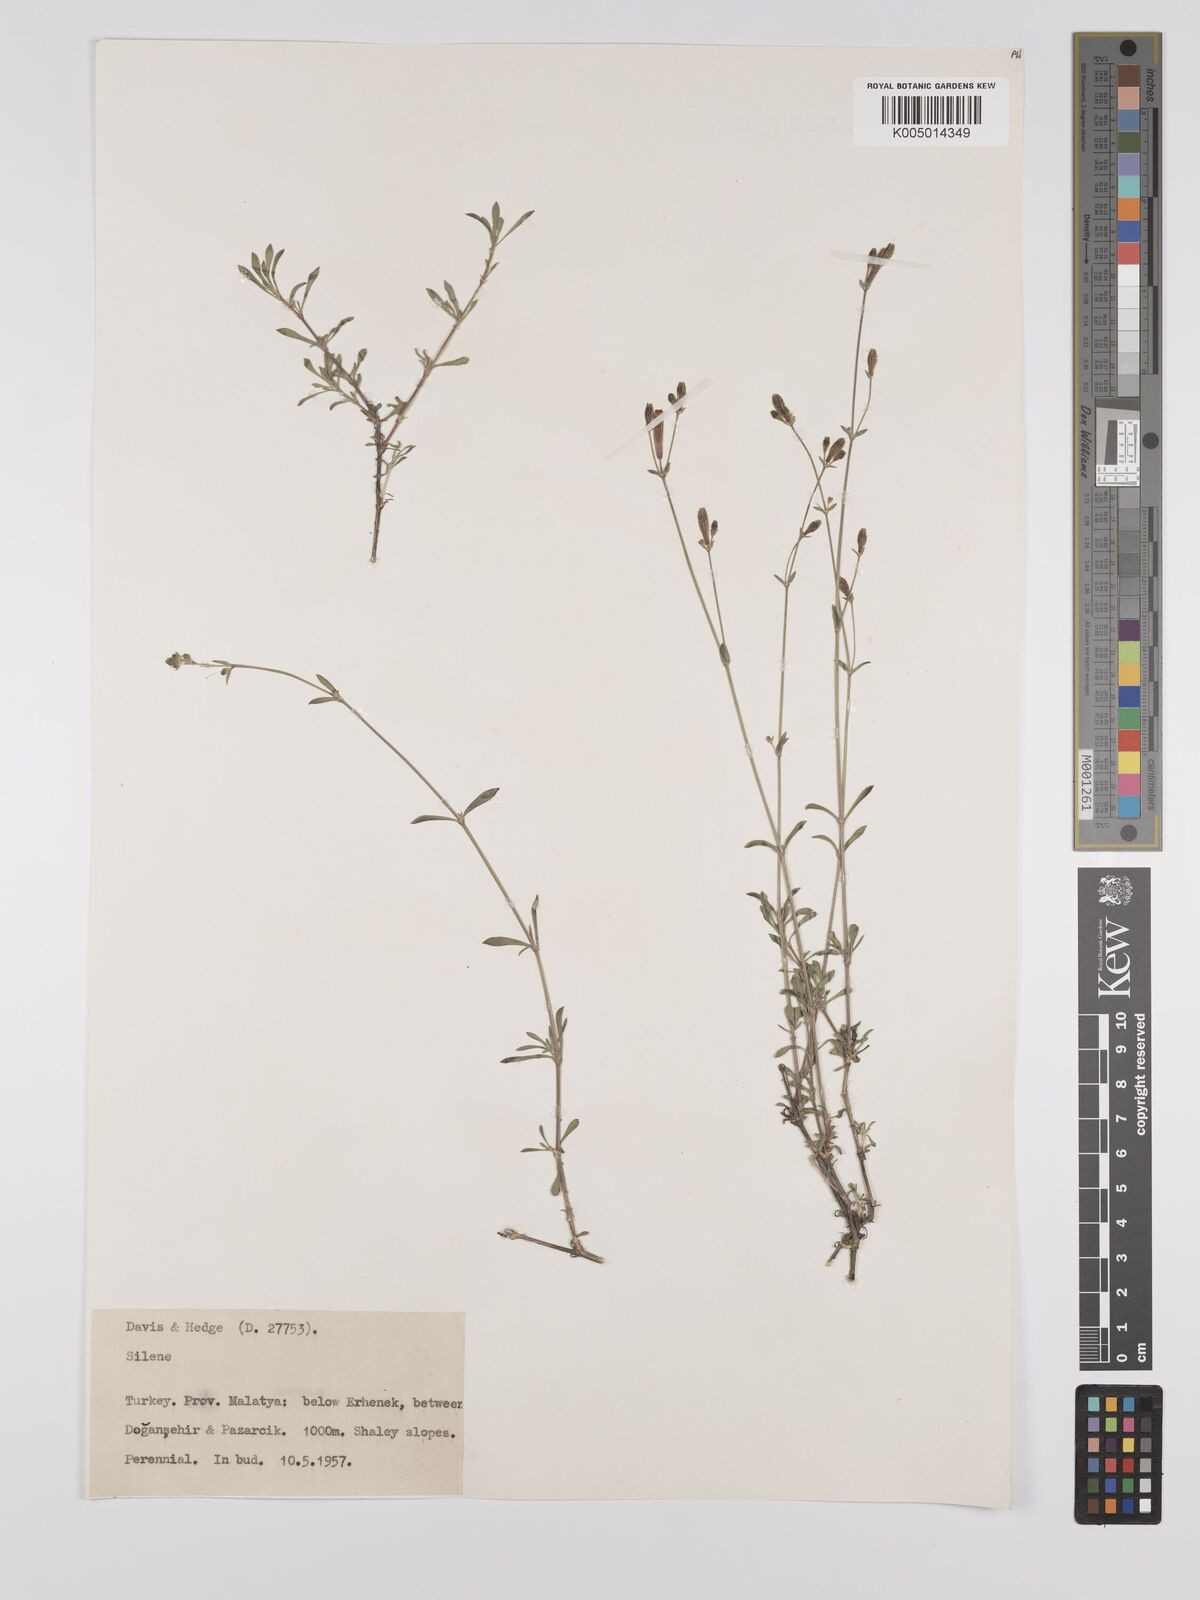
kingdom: Plantae
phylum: Tracheophyta
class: Magnoliopsida
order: Caryophyllales
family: Caryophyllaceae
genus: Silene
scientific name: Silene
